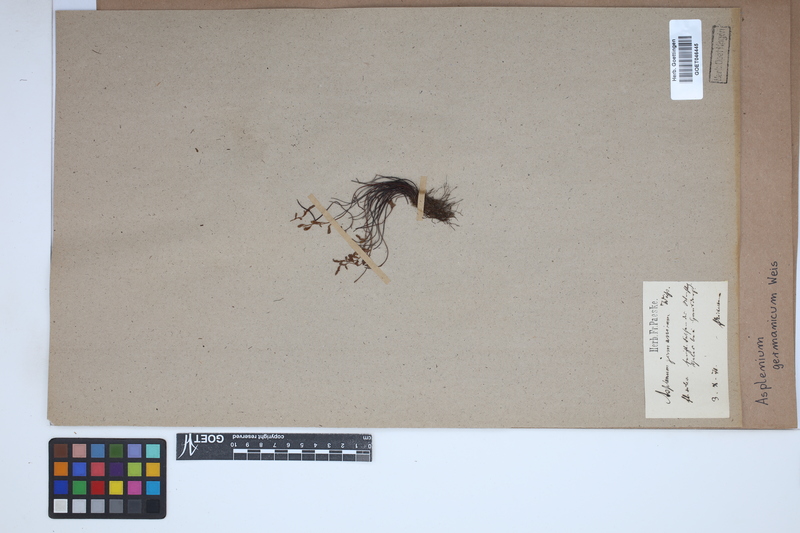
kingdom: Plantae
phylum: Tracheophyta
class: Polypodiopsida
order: Polypodiales
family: Aspleniaceae
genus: Asplenium
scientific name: Asplenium
